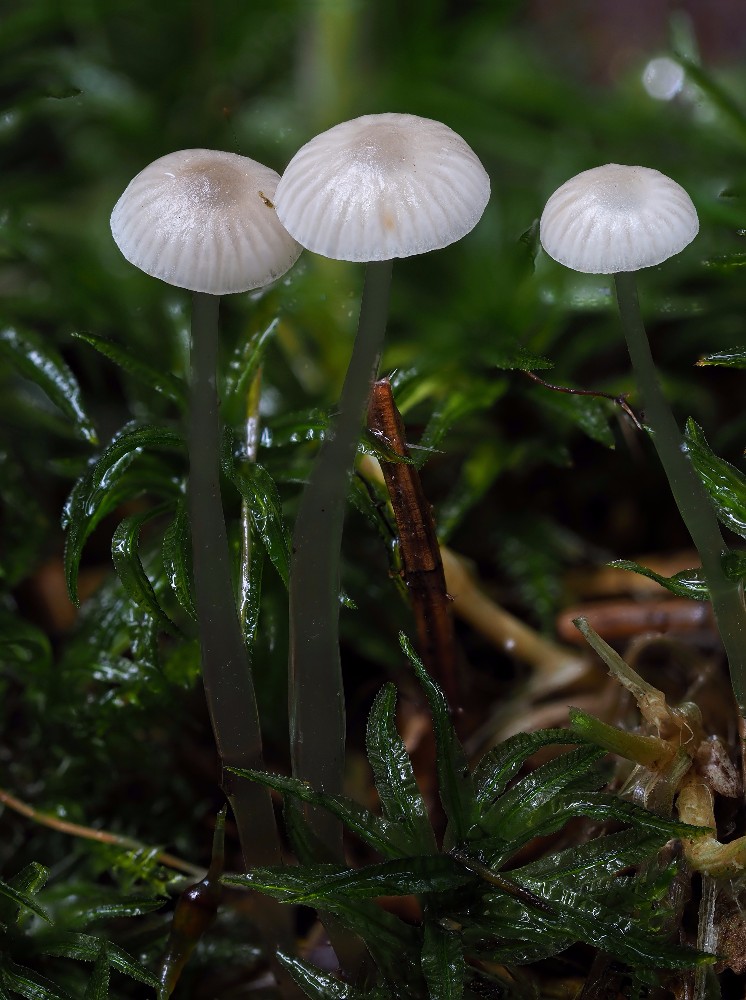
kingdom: Fungi
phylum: Basidiomycota
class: Agaricomycetes
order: Agaricales
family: Mycenaceae
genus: Mycena
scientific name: Mycena vulgaris
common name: klæbrig huesvamp
